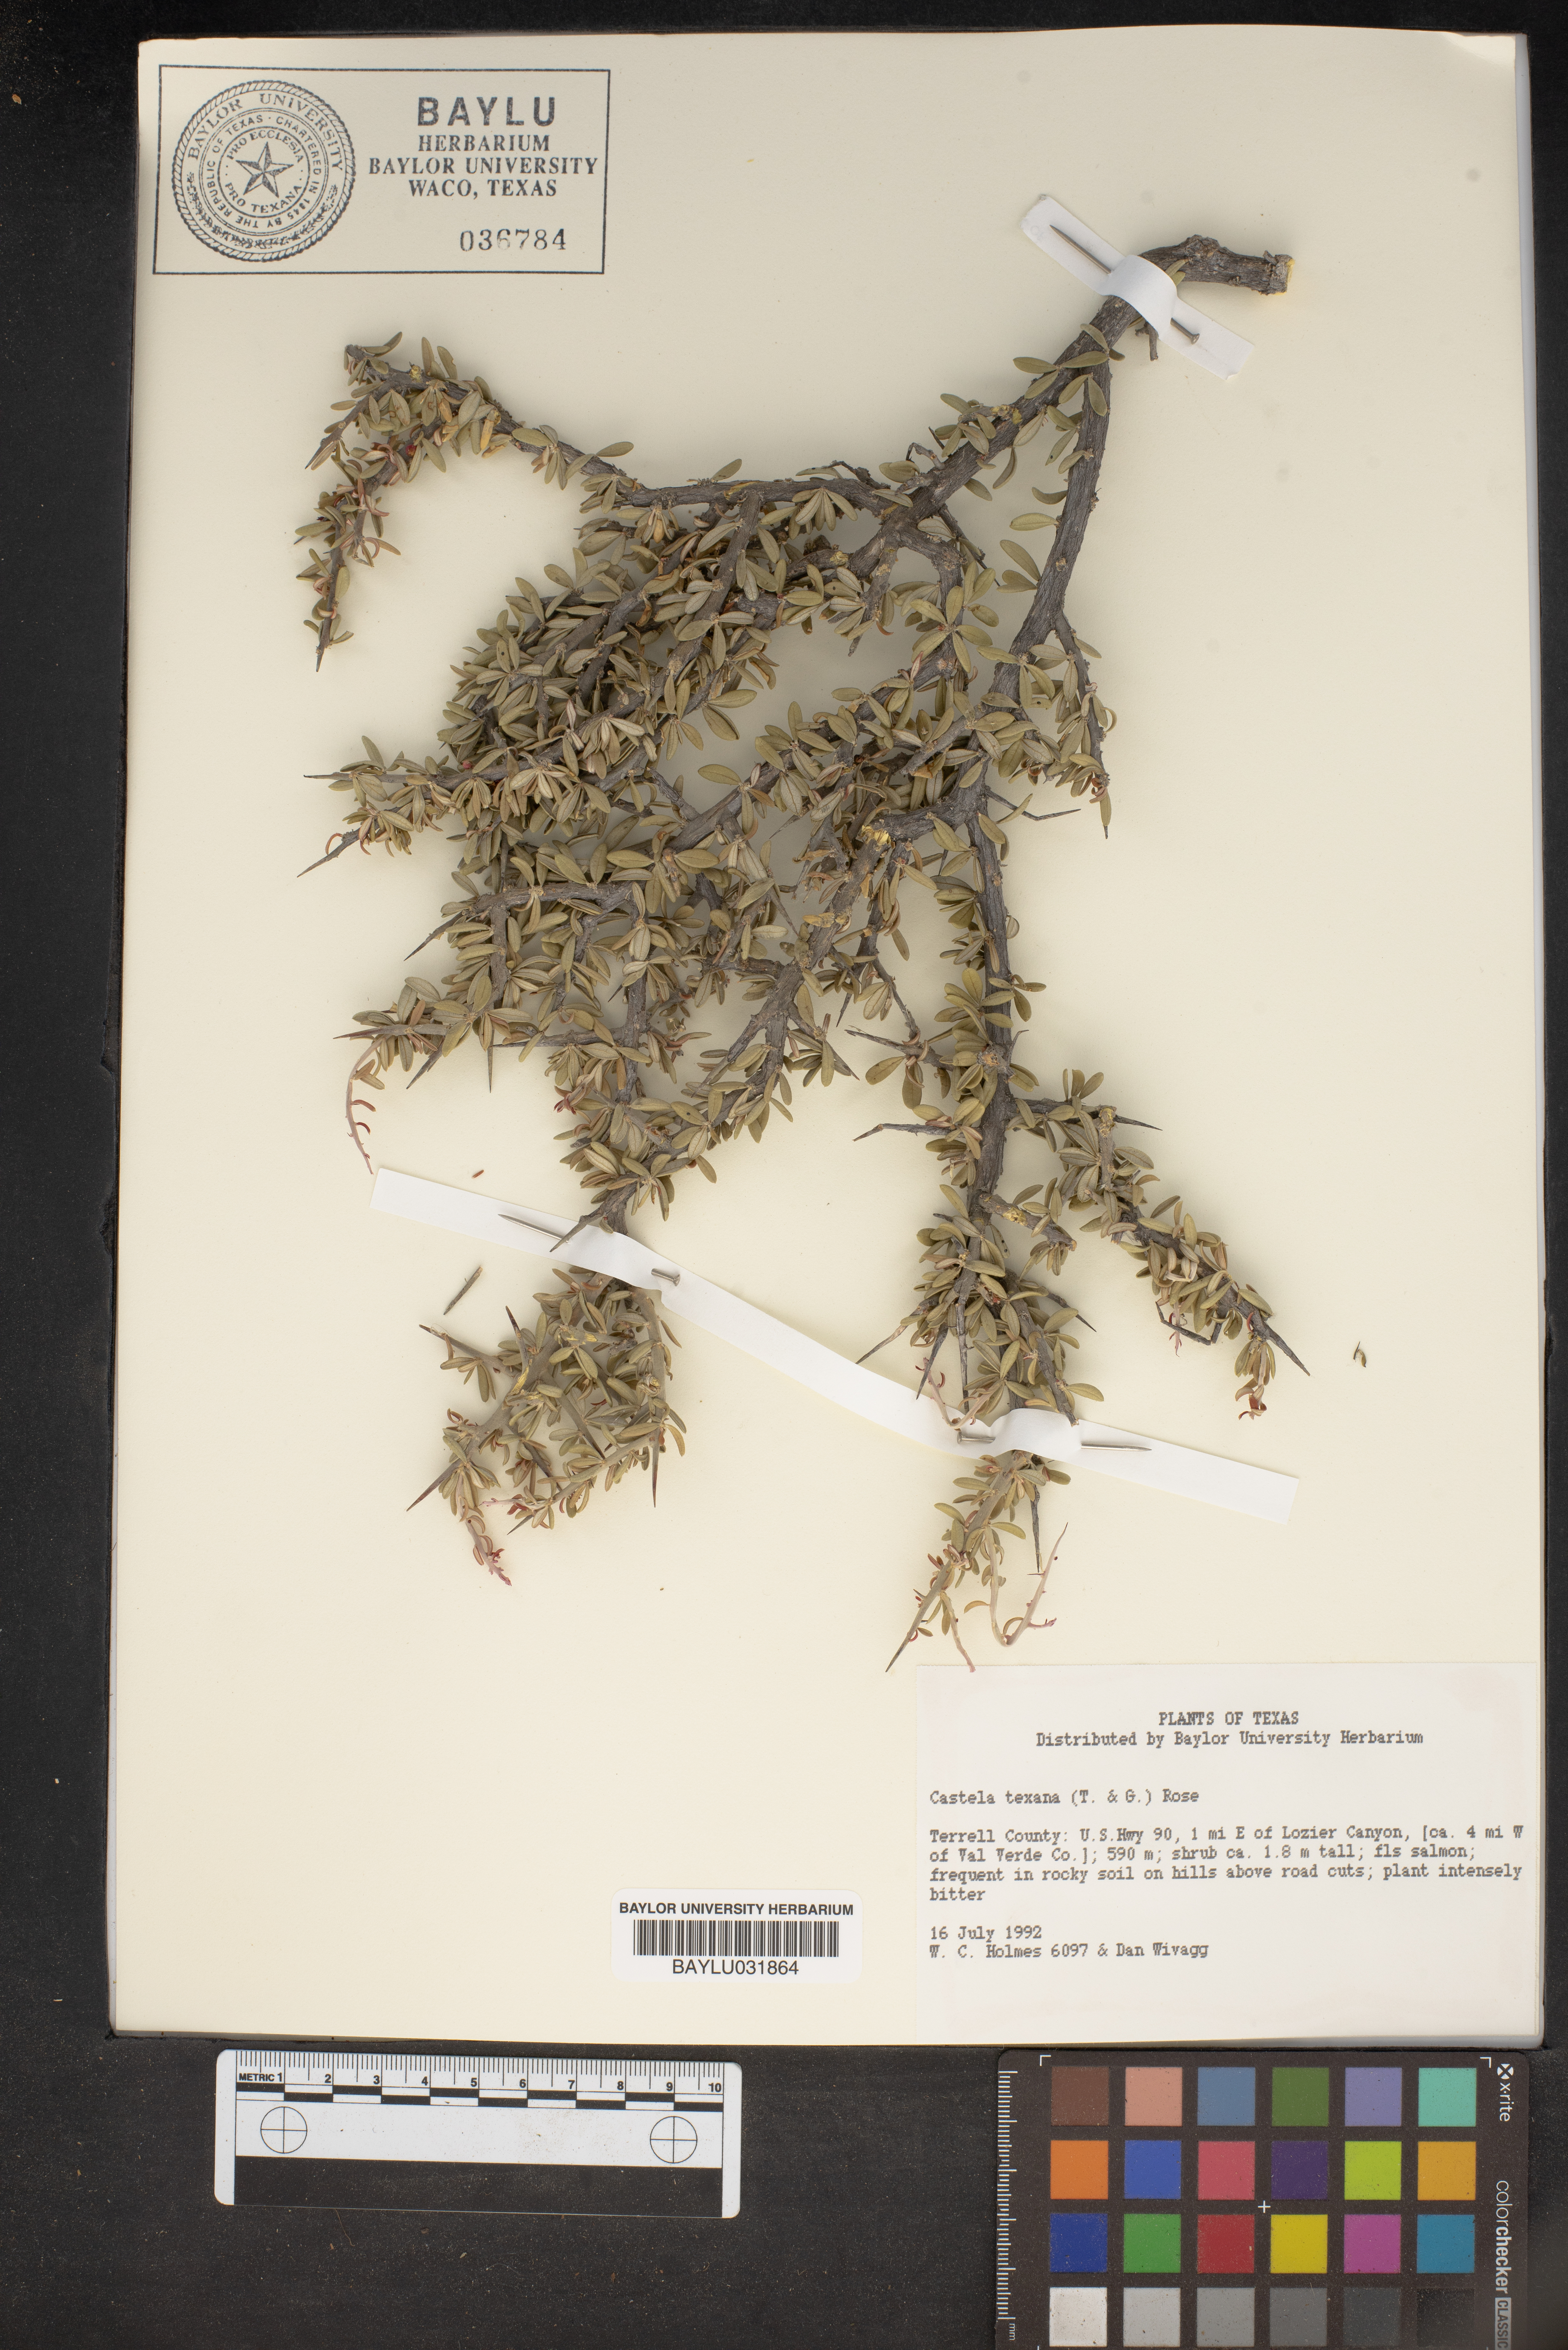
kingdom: Plantae
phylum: Tracheophyta
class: Magnoliopsida
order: Sapindales
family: Simaroubaceae
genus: Castela
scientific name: Castela tortuosa
